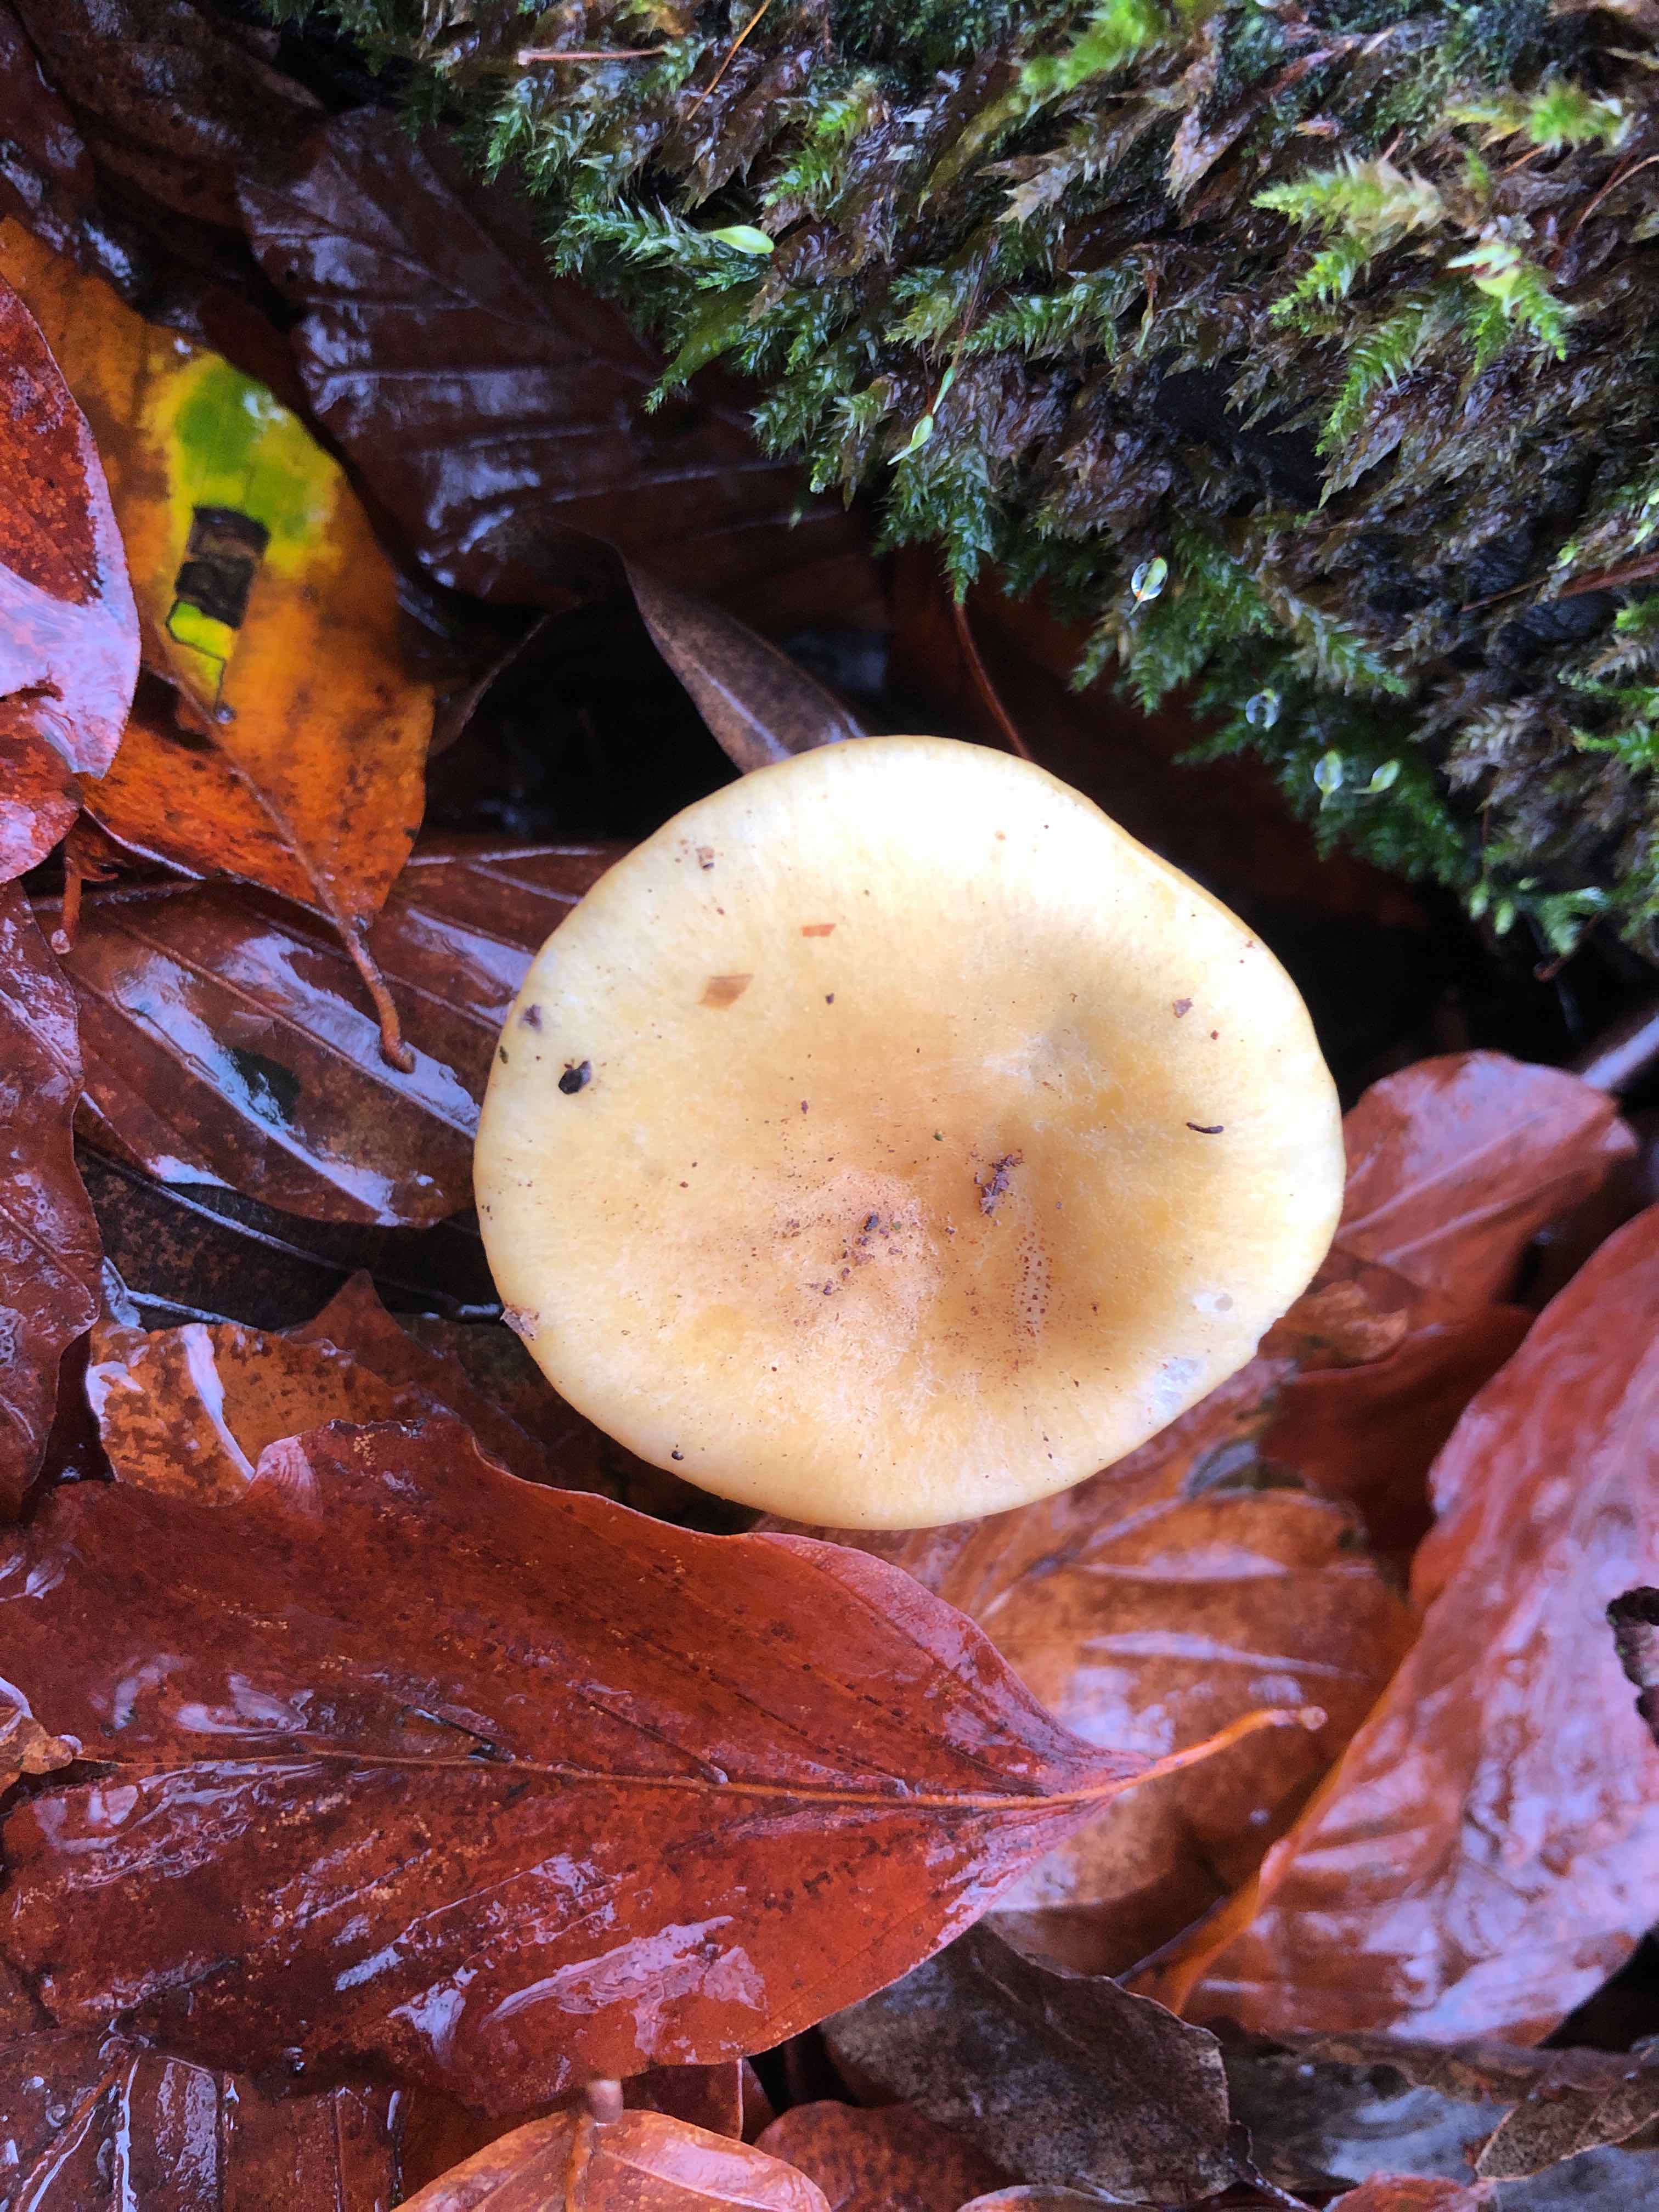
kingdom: Fungi
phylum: Basidiomycota
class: Agaricomycetes
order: Russulales
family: Russulaceae
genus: Russula
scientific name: Russula ochroleuca
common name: okkergul skørhat
